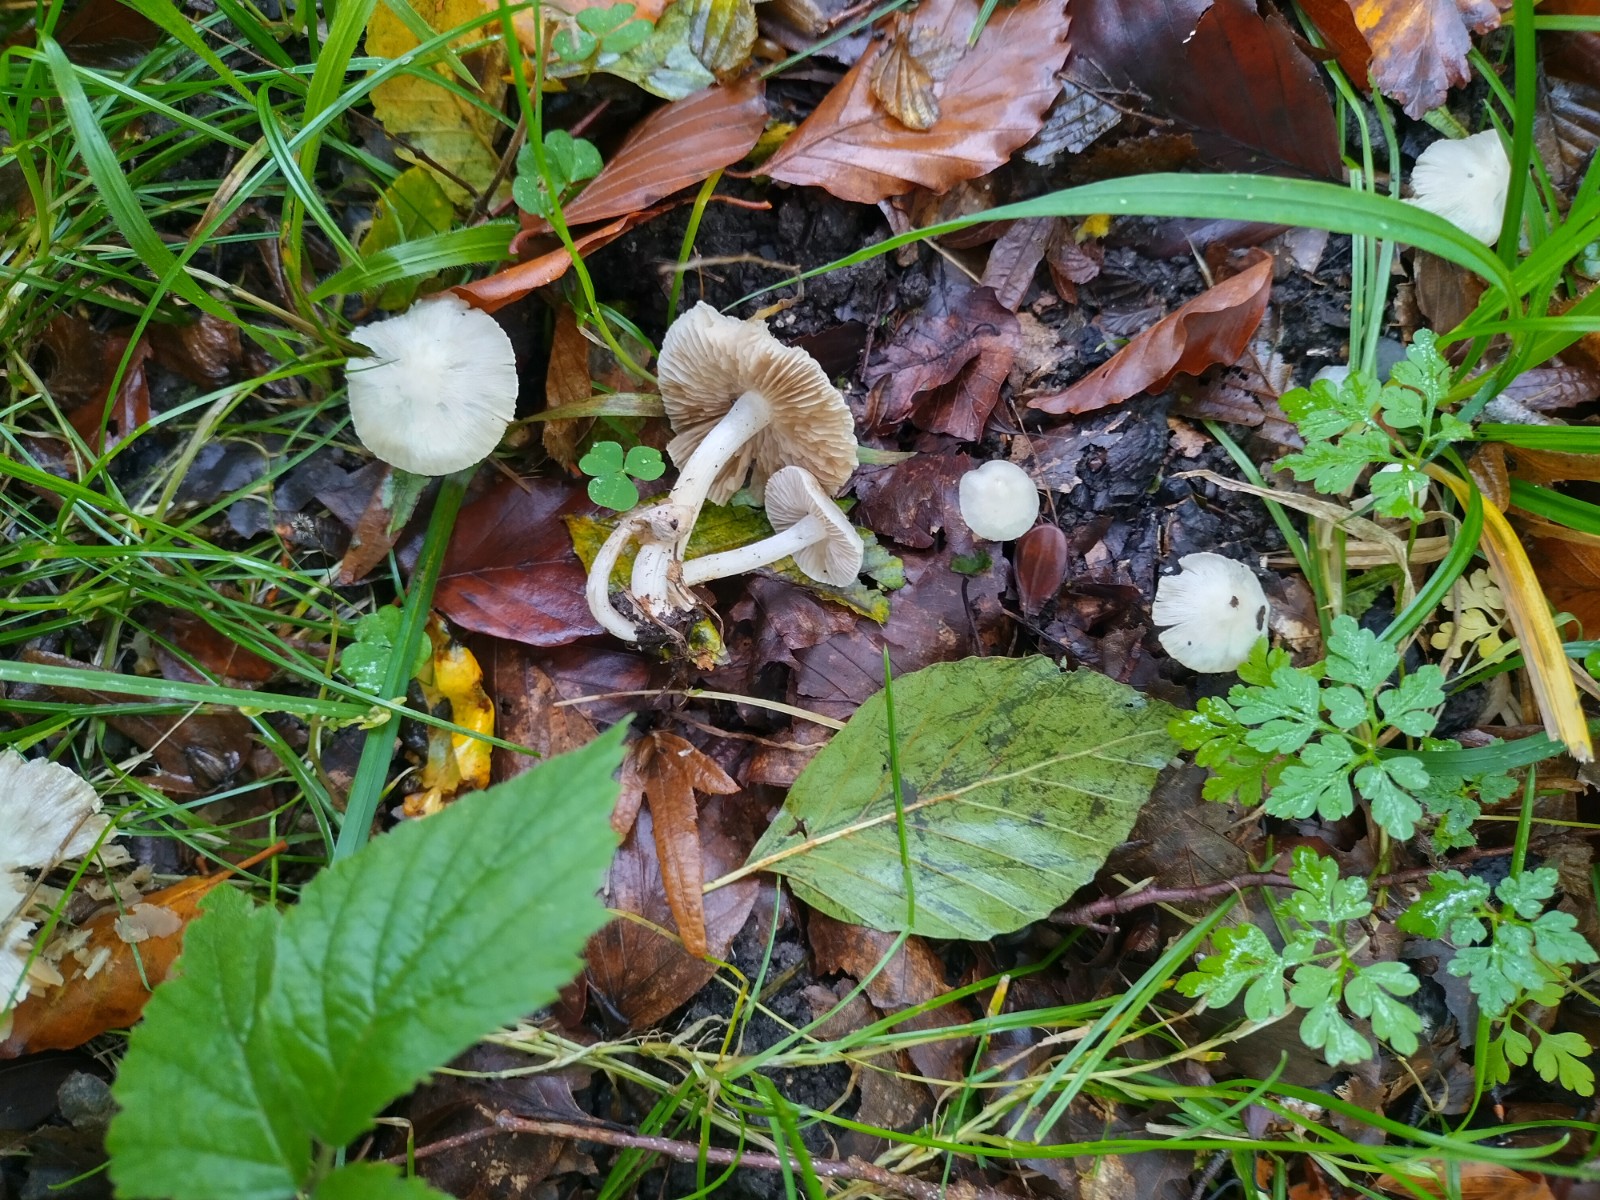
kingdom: Fungi
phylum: Basidiomycota
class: Agaricomycetes
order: Agaricales
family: Inocybaceae
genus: Inocybe
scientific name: Inocybe
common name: almindelig trævlhat
